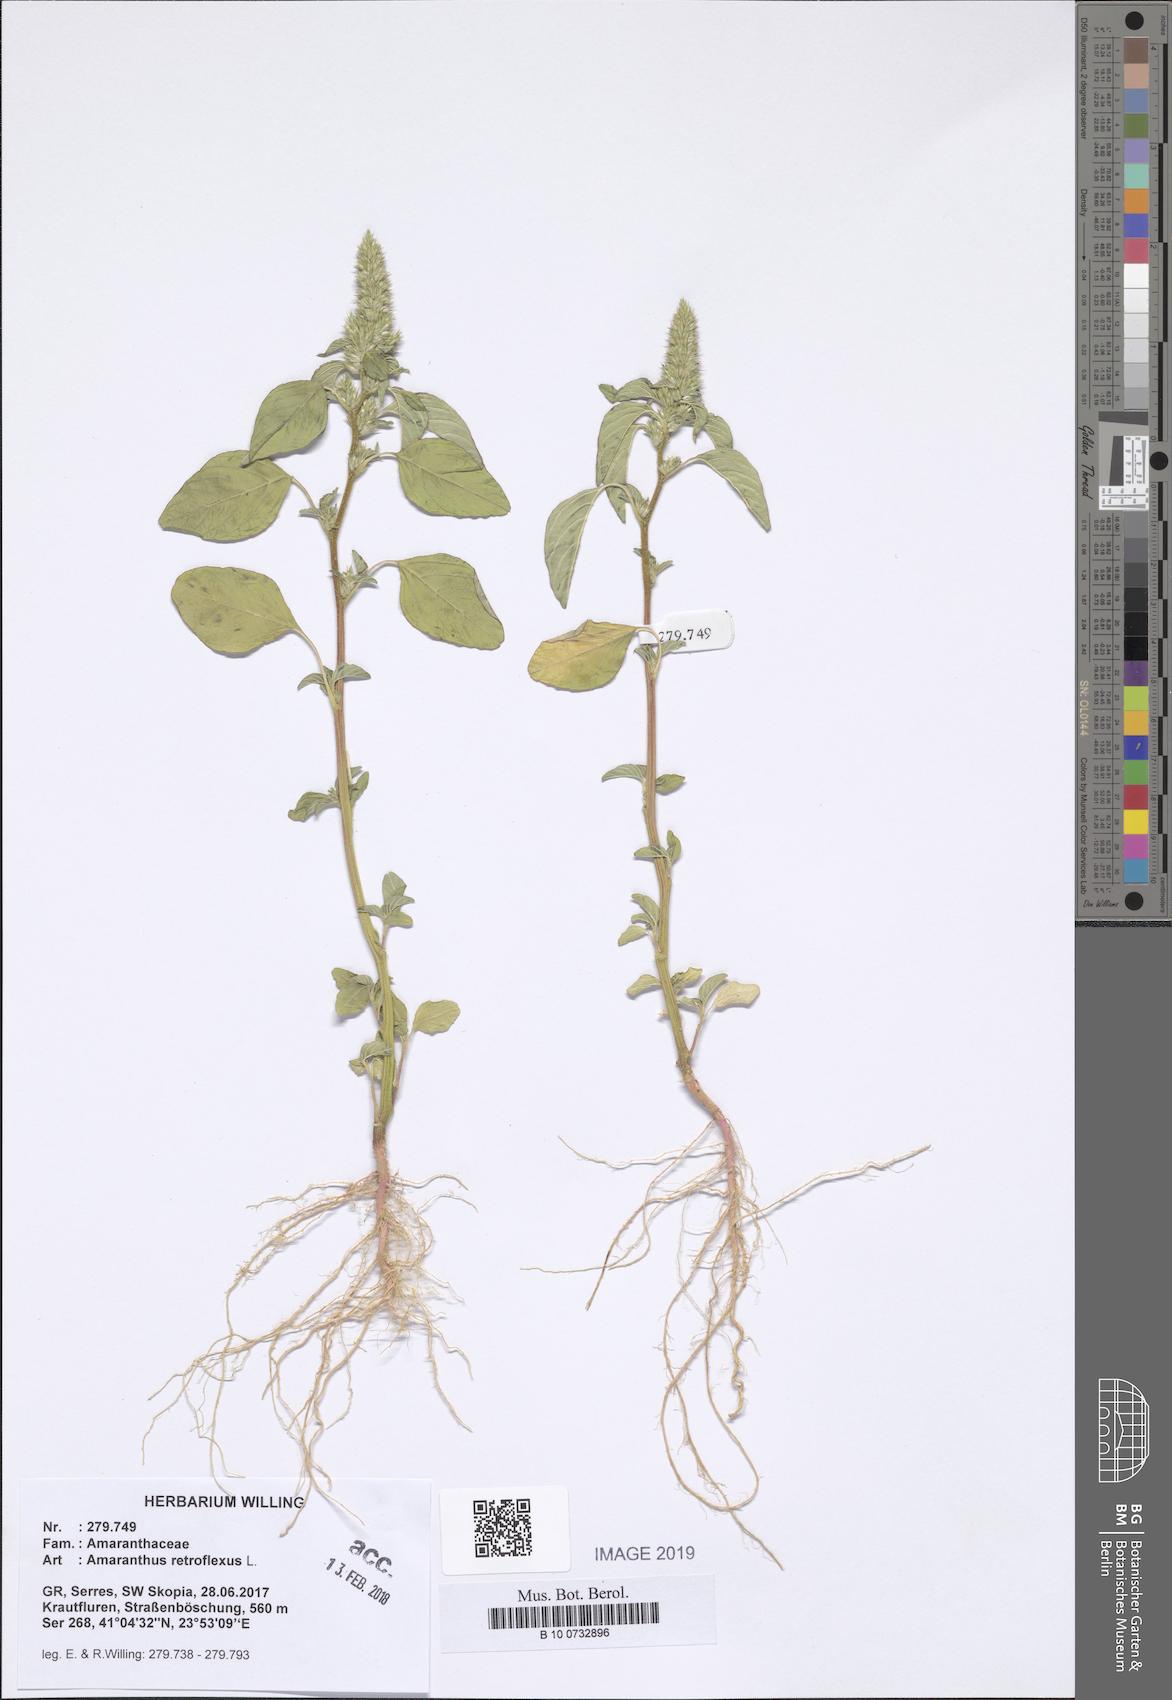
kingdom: Plantae
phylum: Tracheophyta
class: Magnoliopsida
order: Caryophyllales
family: Amaranthaceae
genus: Amaranthus
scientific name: Amaranthus retroflexus
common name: Redroot amaranth
